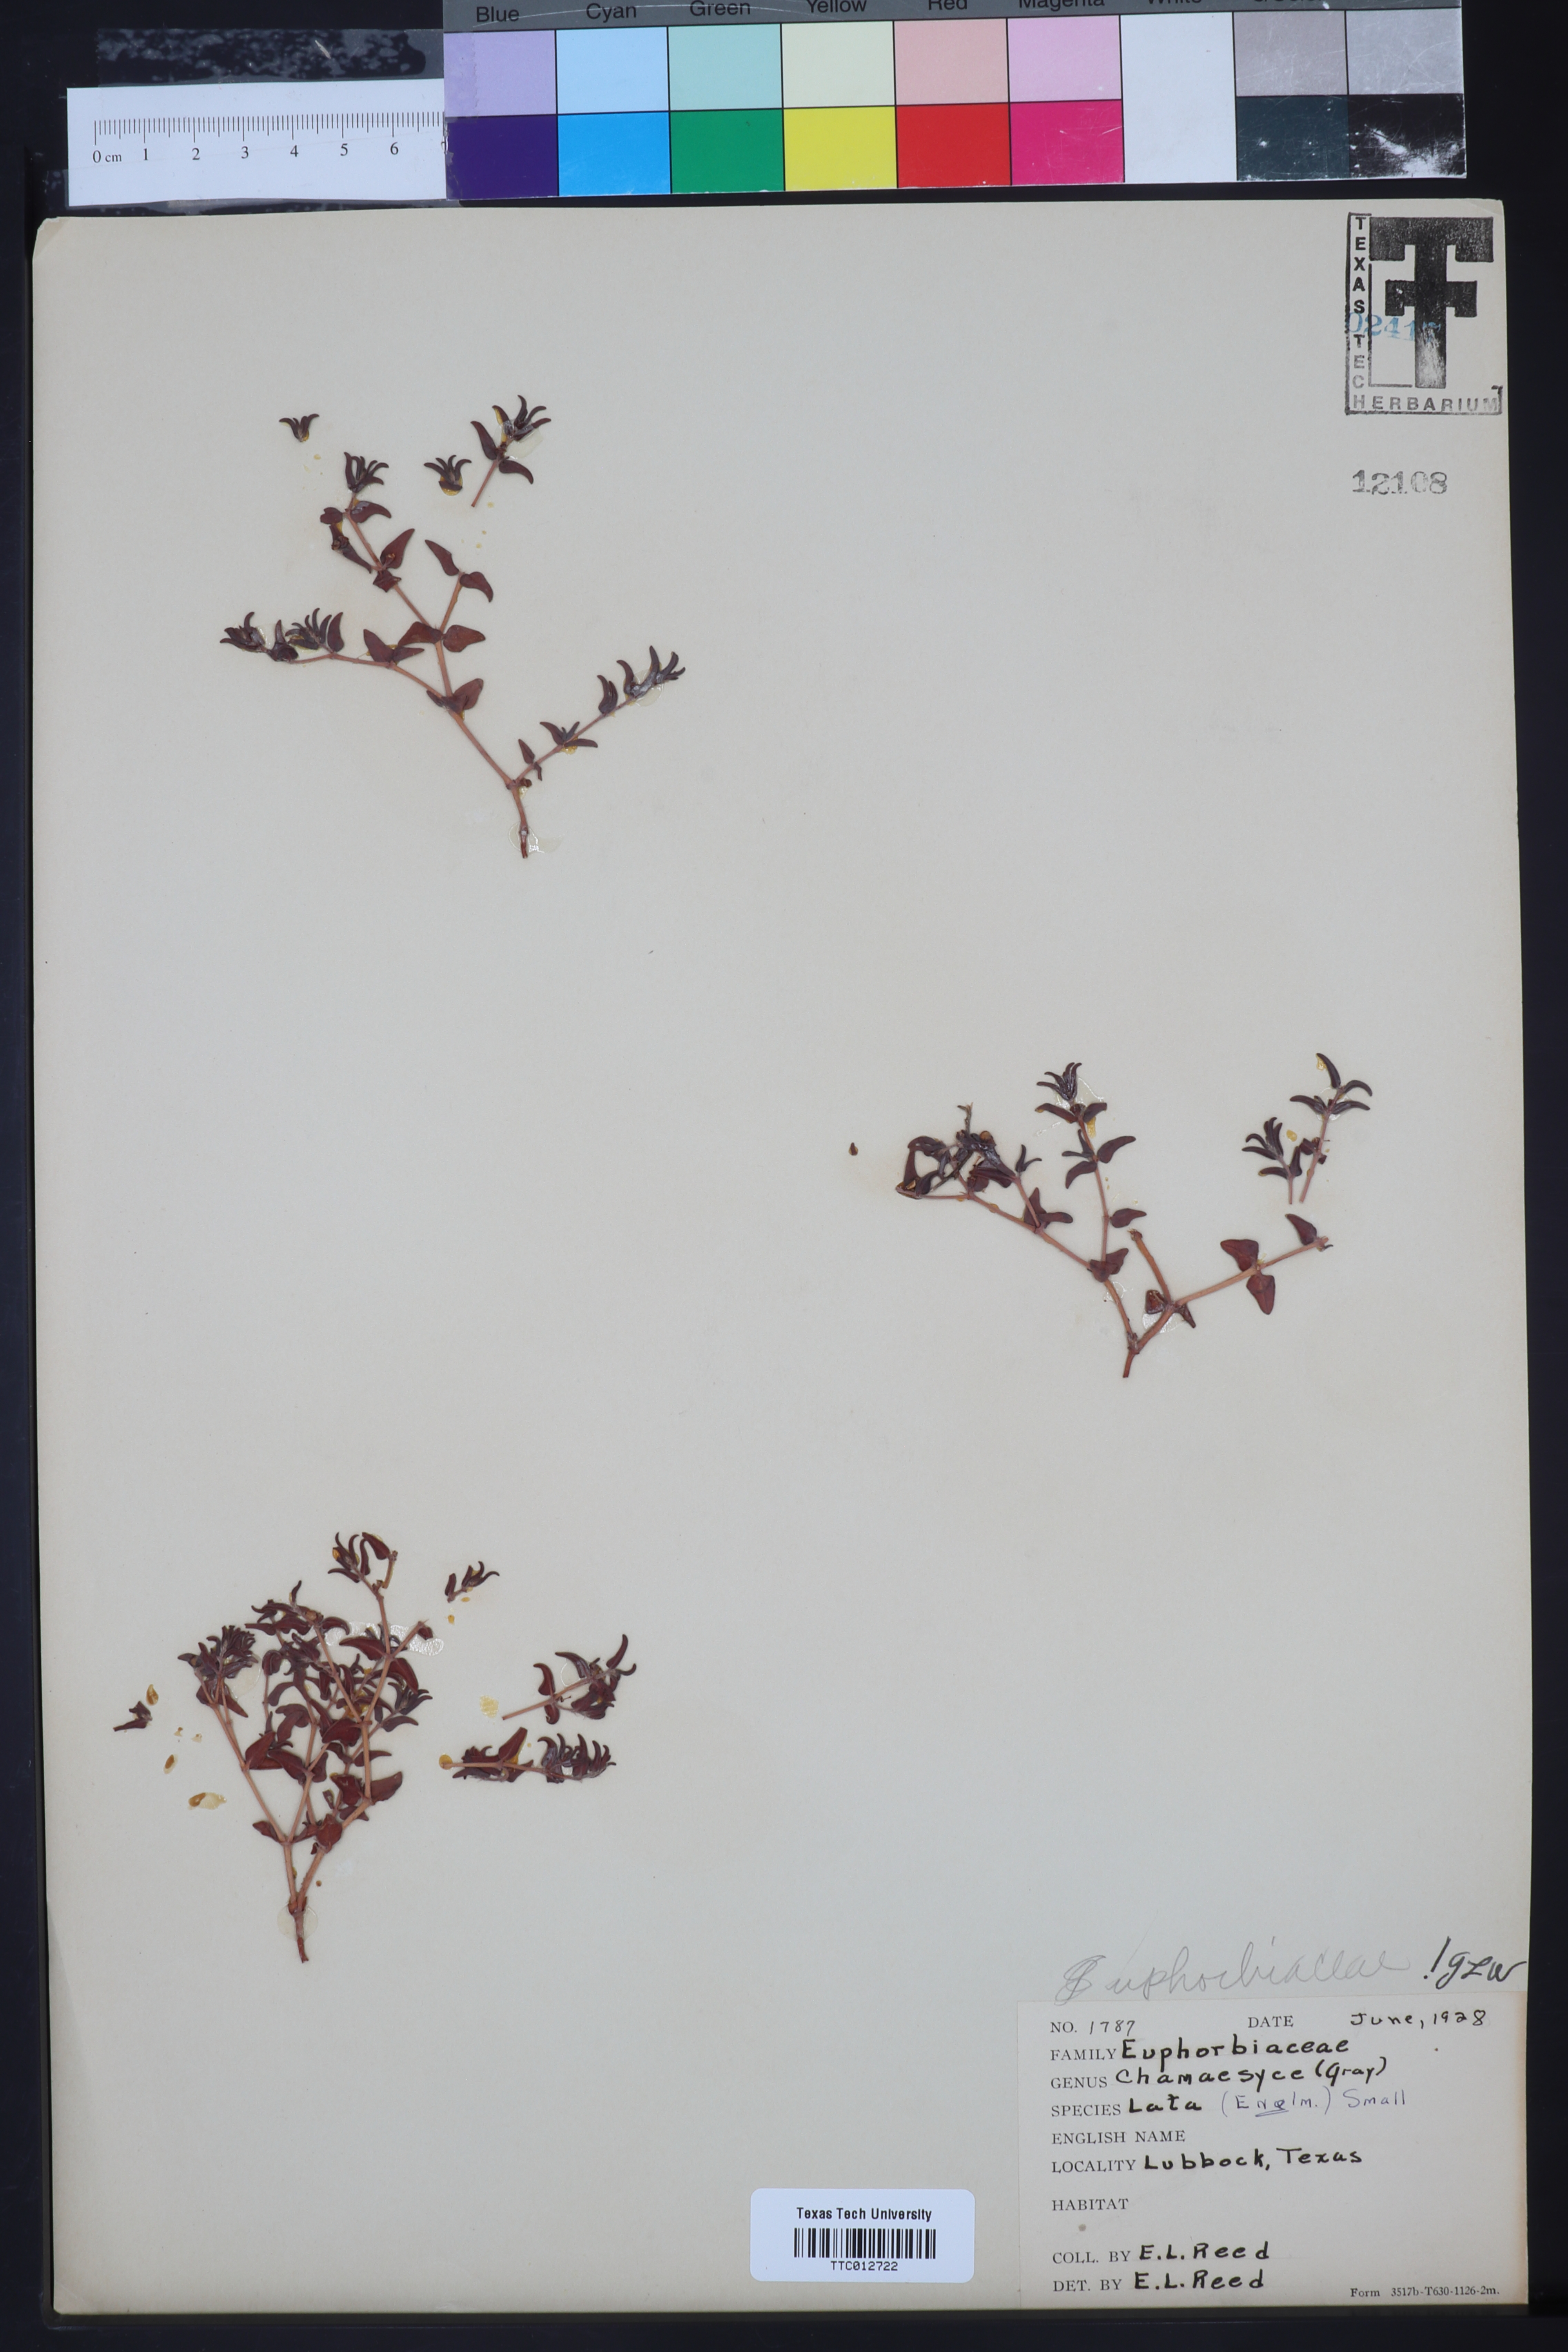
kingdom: Plantae
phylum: Tracheophyta
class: Magnoliopsida
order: Malpighiales
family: Euphorbiaceae
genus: Euphorbia
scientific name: Euphorbia lata
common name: Hoary euphorbia
